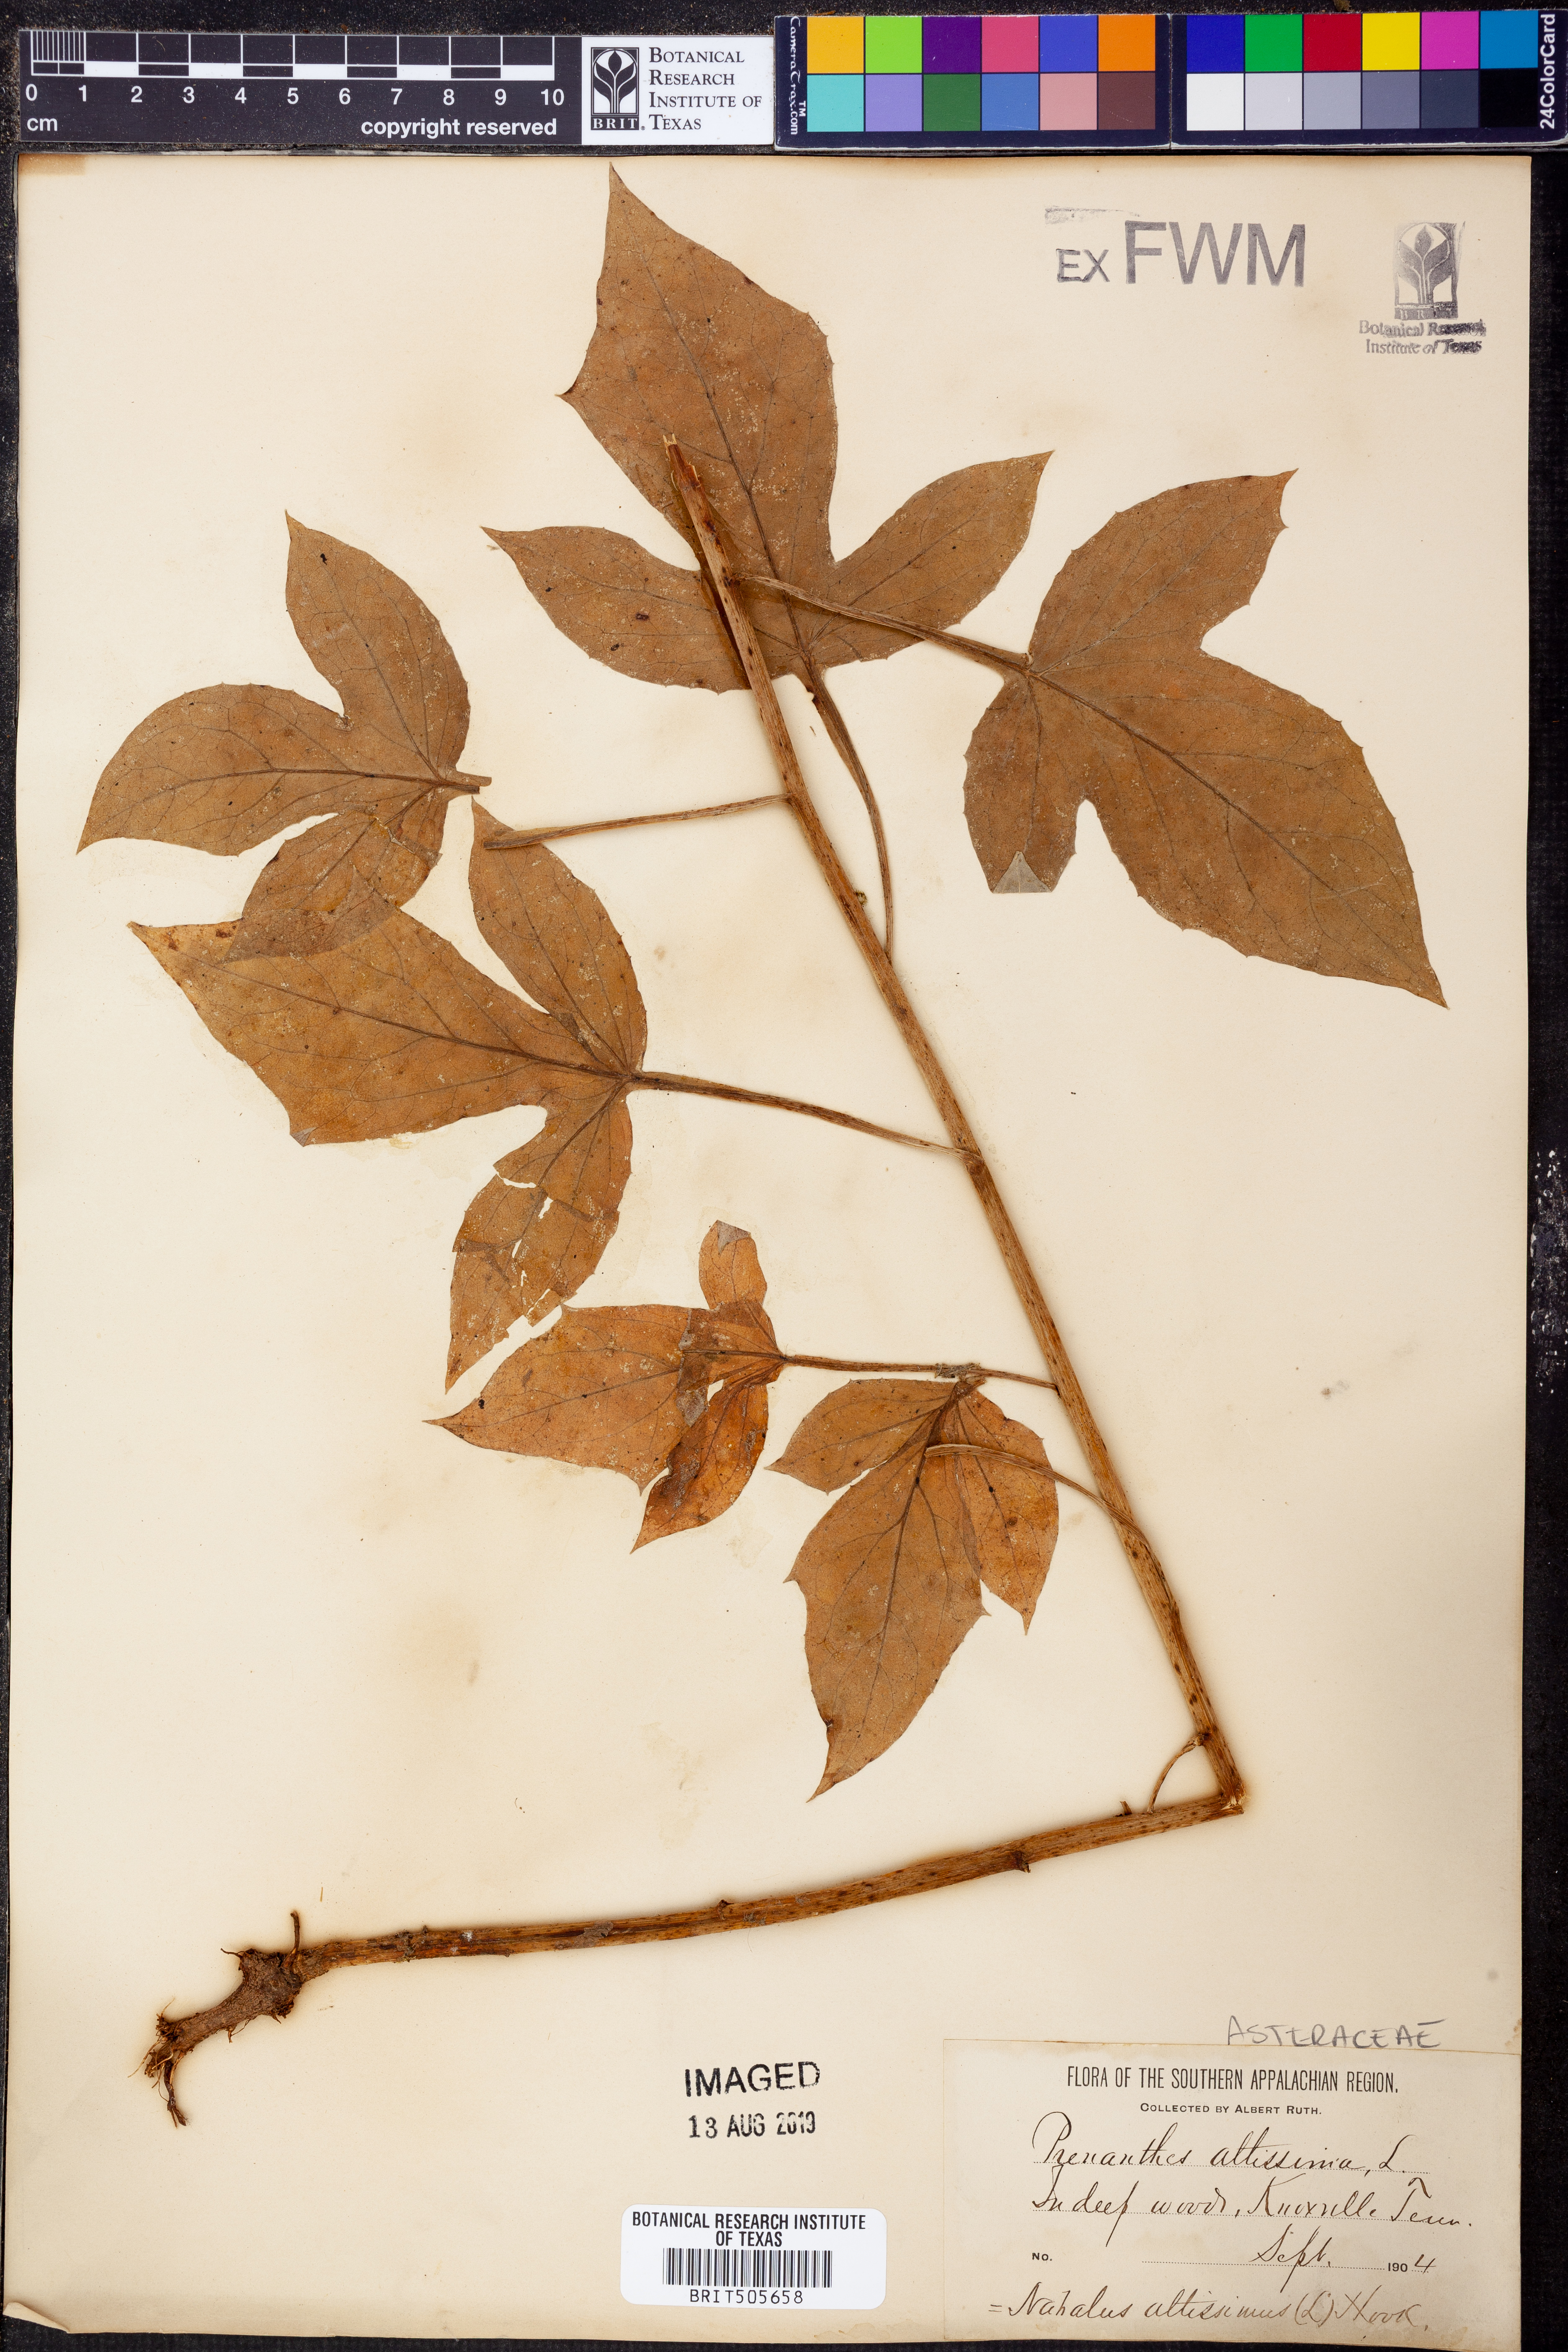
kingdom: Plantae
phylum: Tracheophyta
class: Magnoliopsida
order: Asterales
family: Asteraceae
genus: Lactuca
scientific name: Lactuca quercina
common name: Wild lettuce
